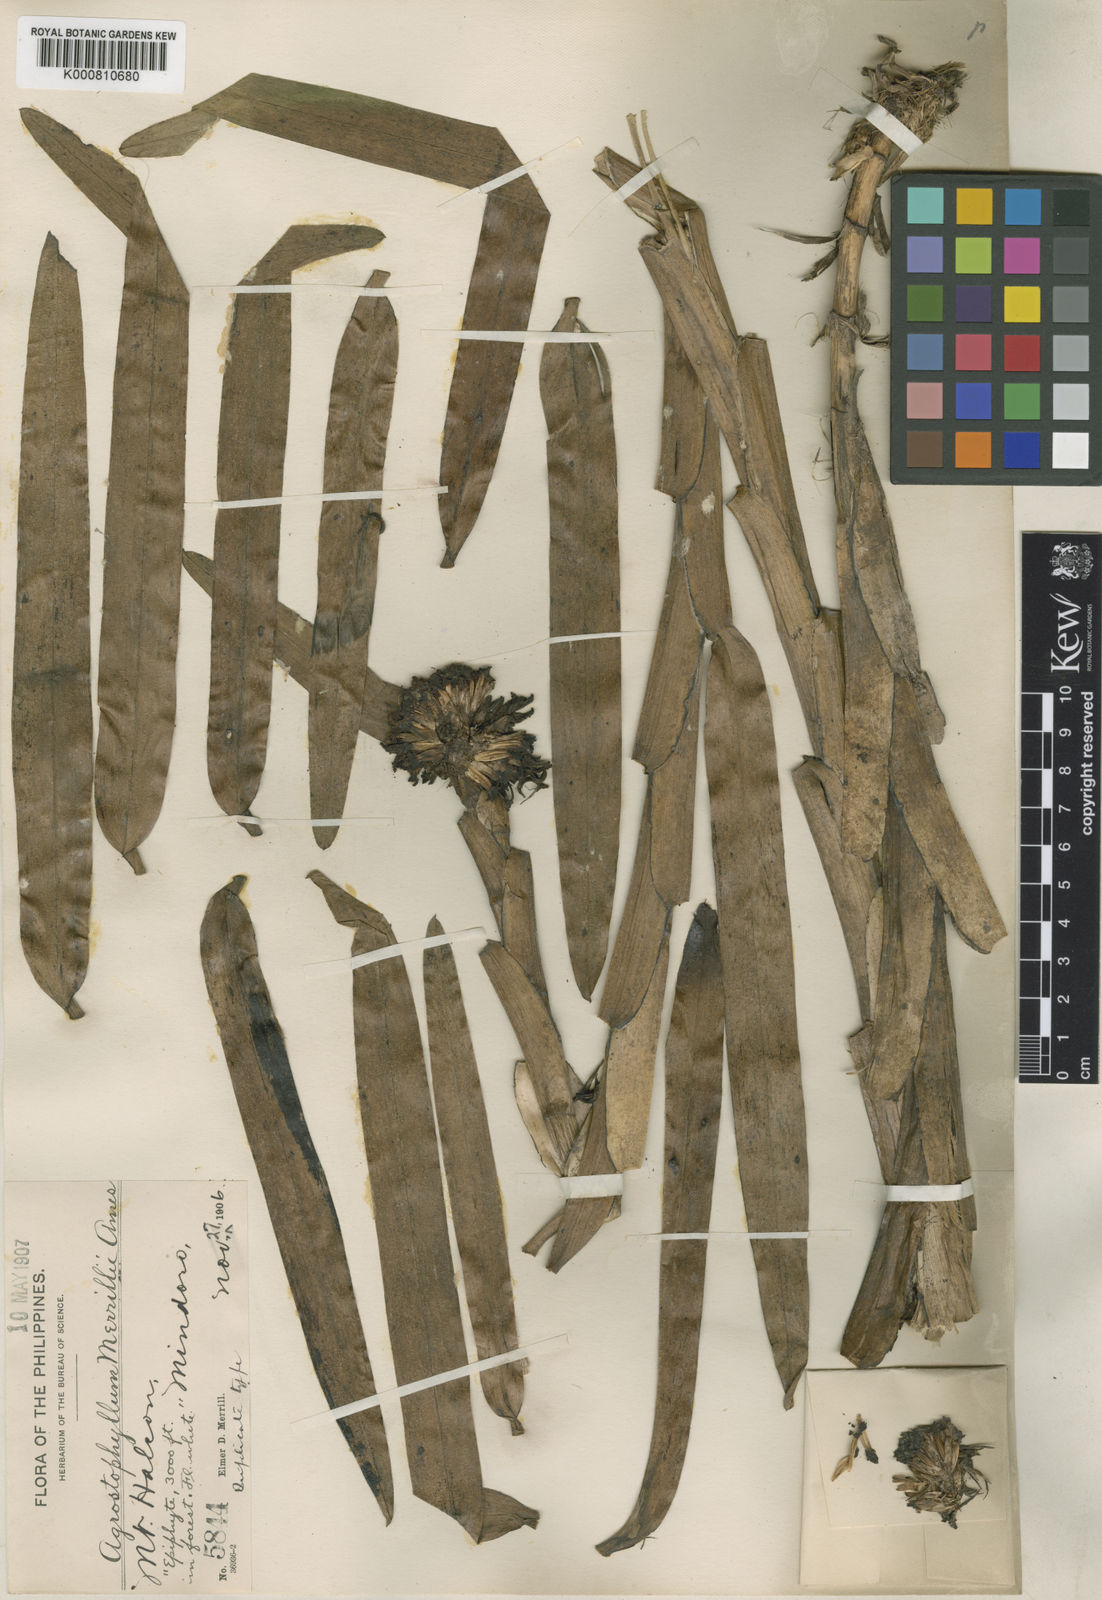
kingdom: Plantae
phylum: Tracheophyta
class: Liliopsida
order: Asparagales
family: Orchidaceae
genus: Agrostophyllum
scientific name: Agrostophyllum merrillii
